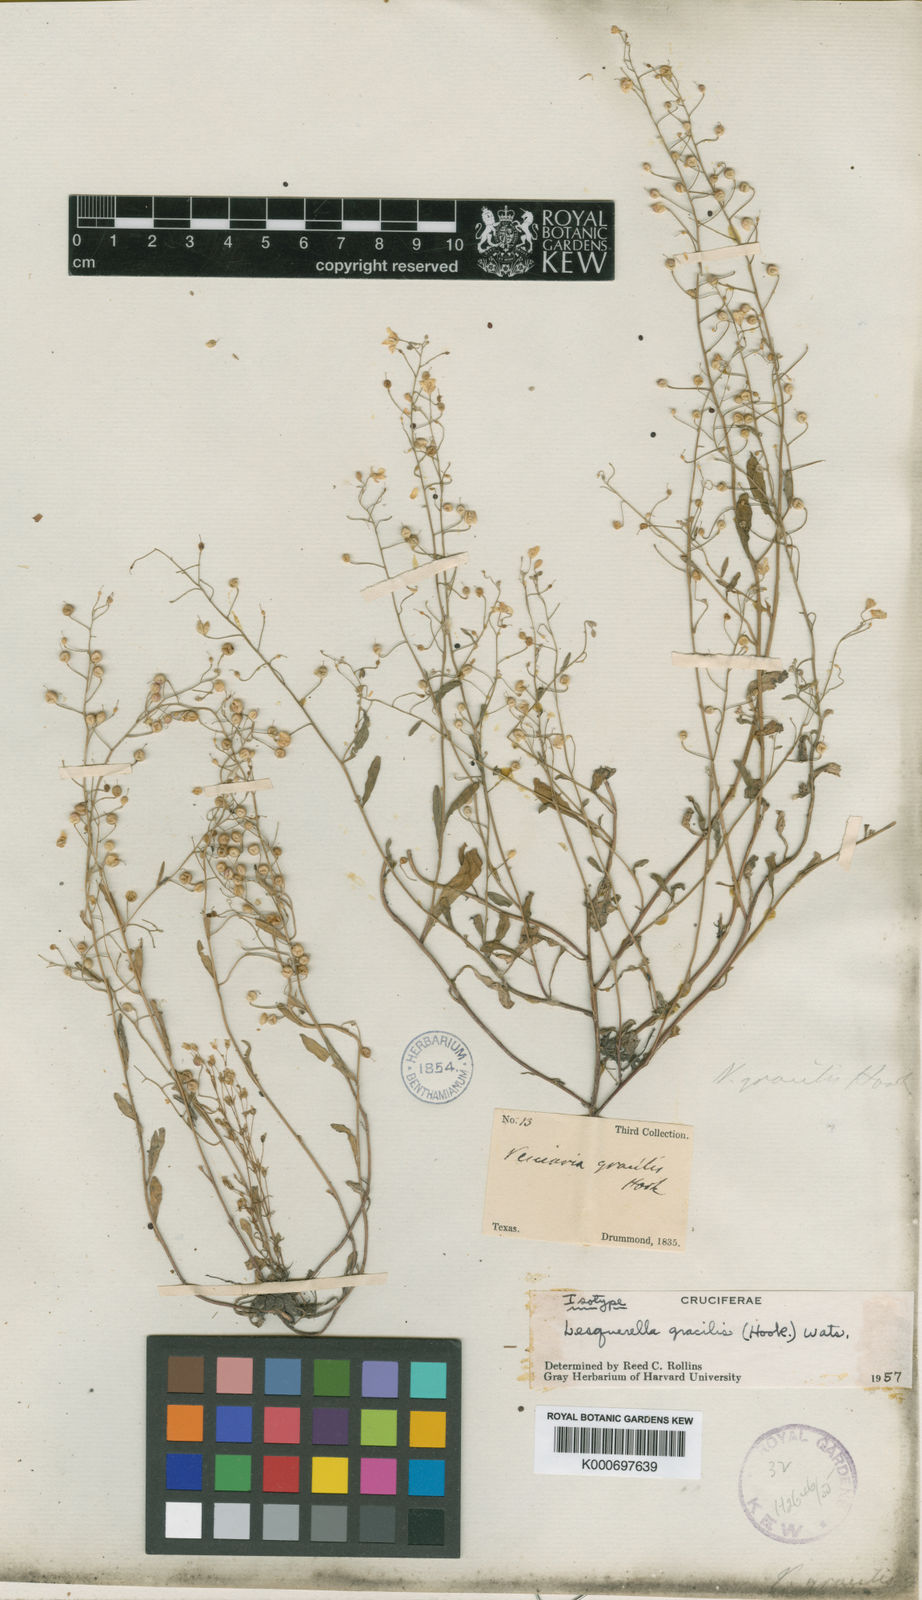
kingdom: Plantae
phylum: Tracheophyta
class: Magnoliopsida
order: Brassicales
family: Brassicaceae
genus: Physaria
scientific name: Physaria gracilis
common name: Spreading bladderpod
